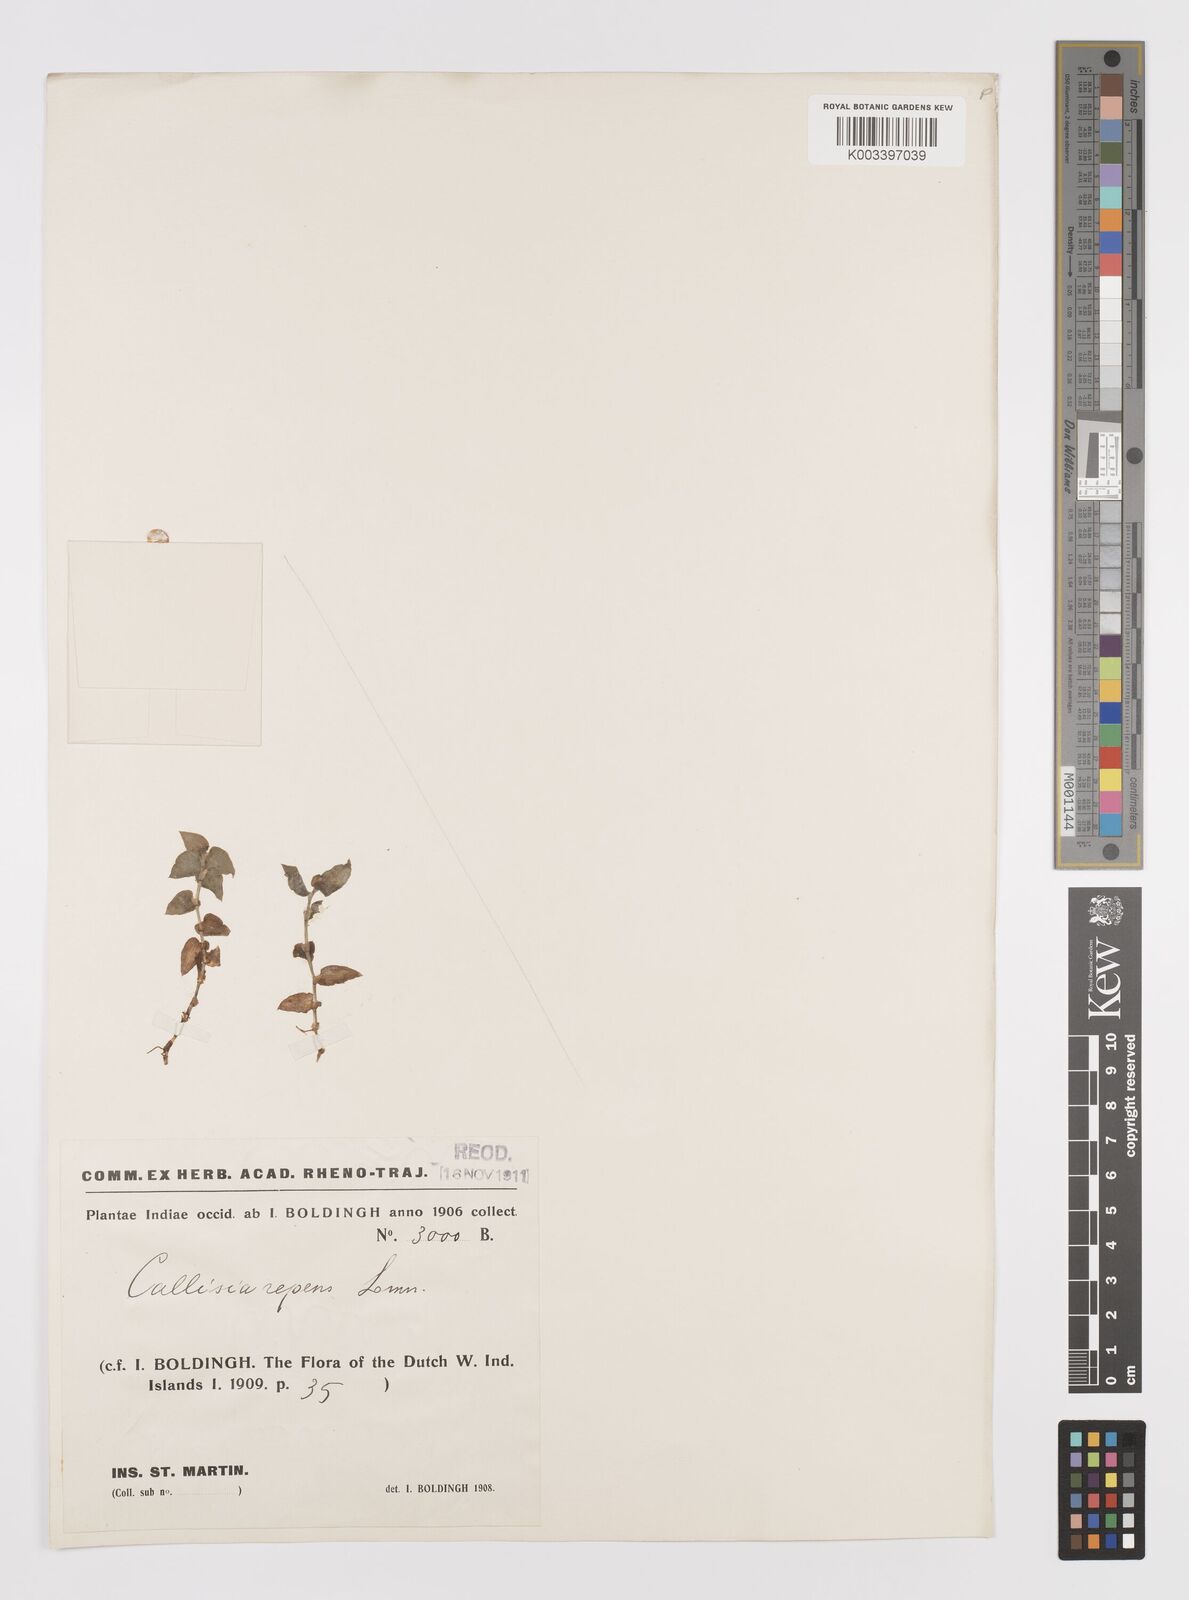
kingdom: Plantae
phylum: Tracheophyta
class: Liliopsida
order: Commelinales
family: Commelinaceae
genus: Callisia
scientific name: Callisia repens
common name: Creeping inchplant
